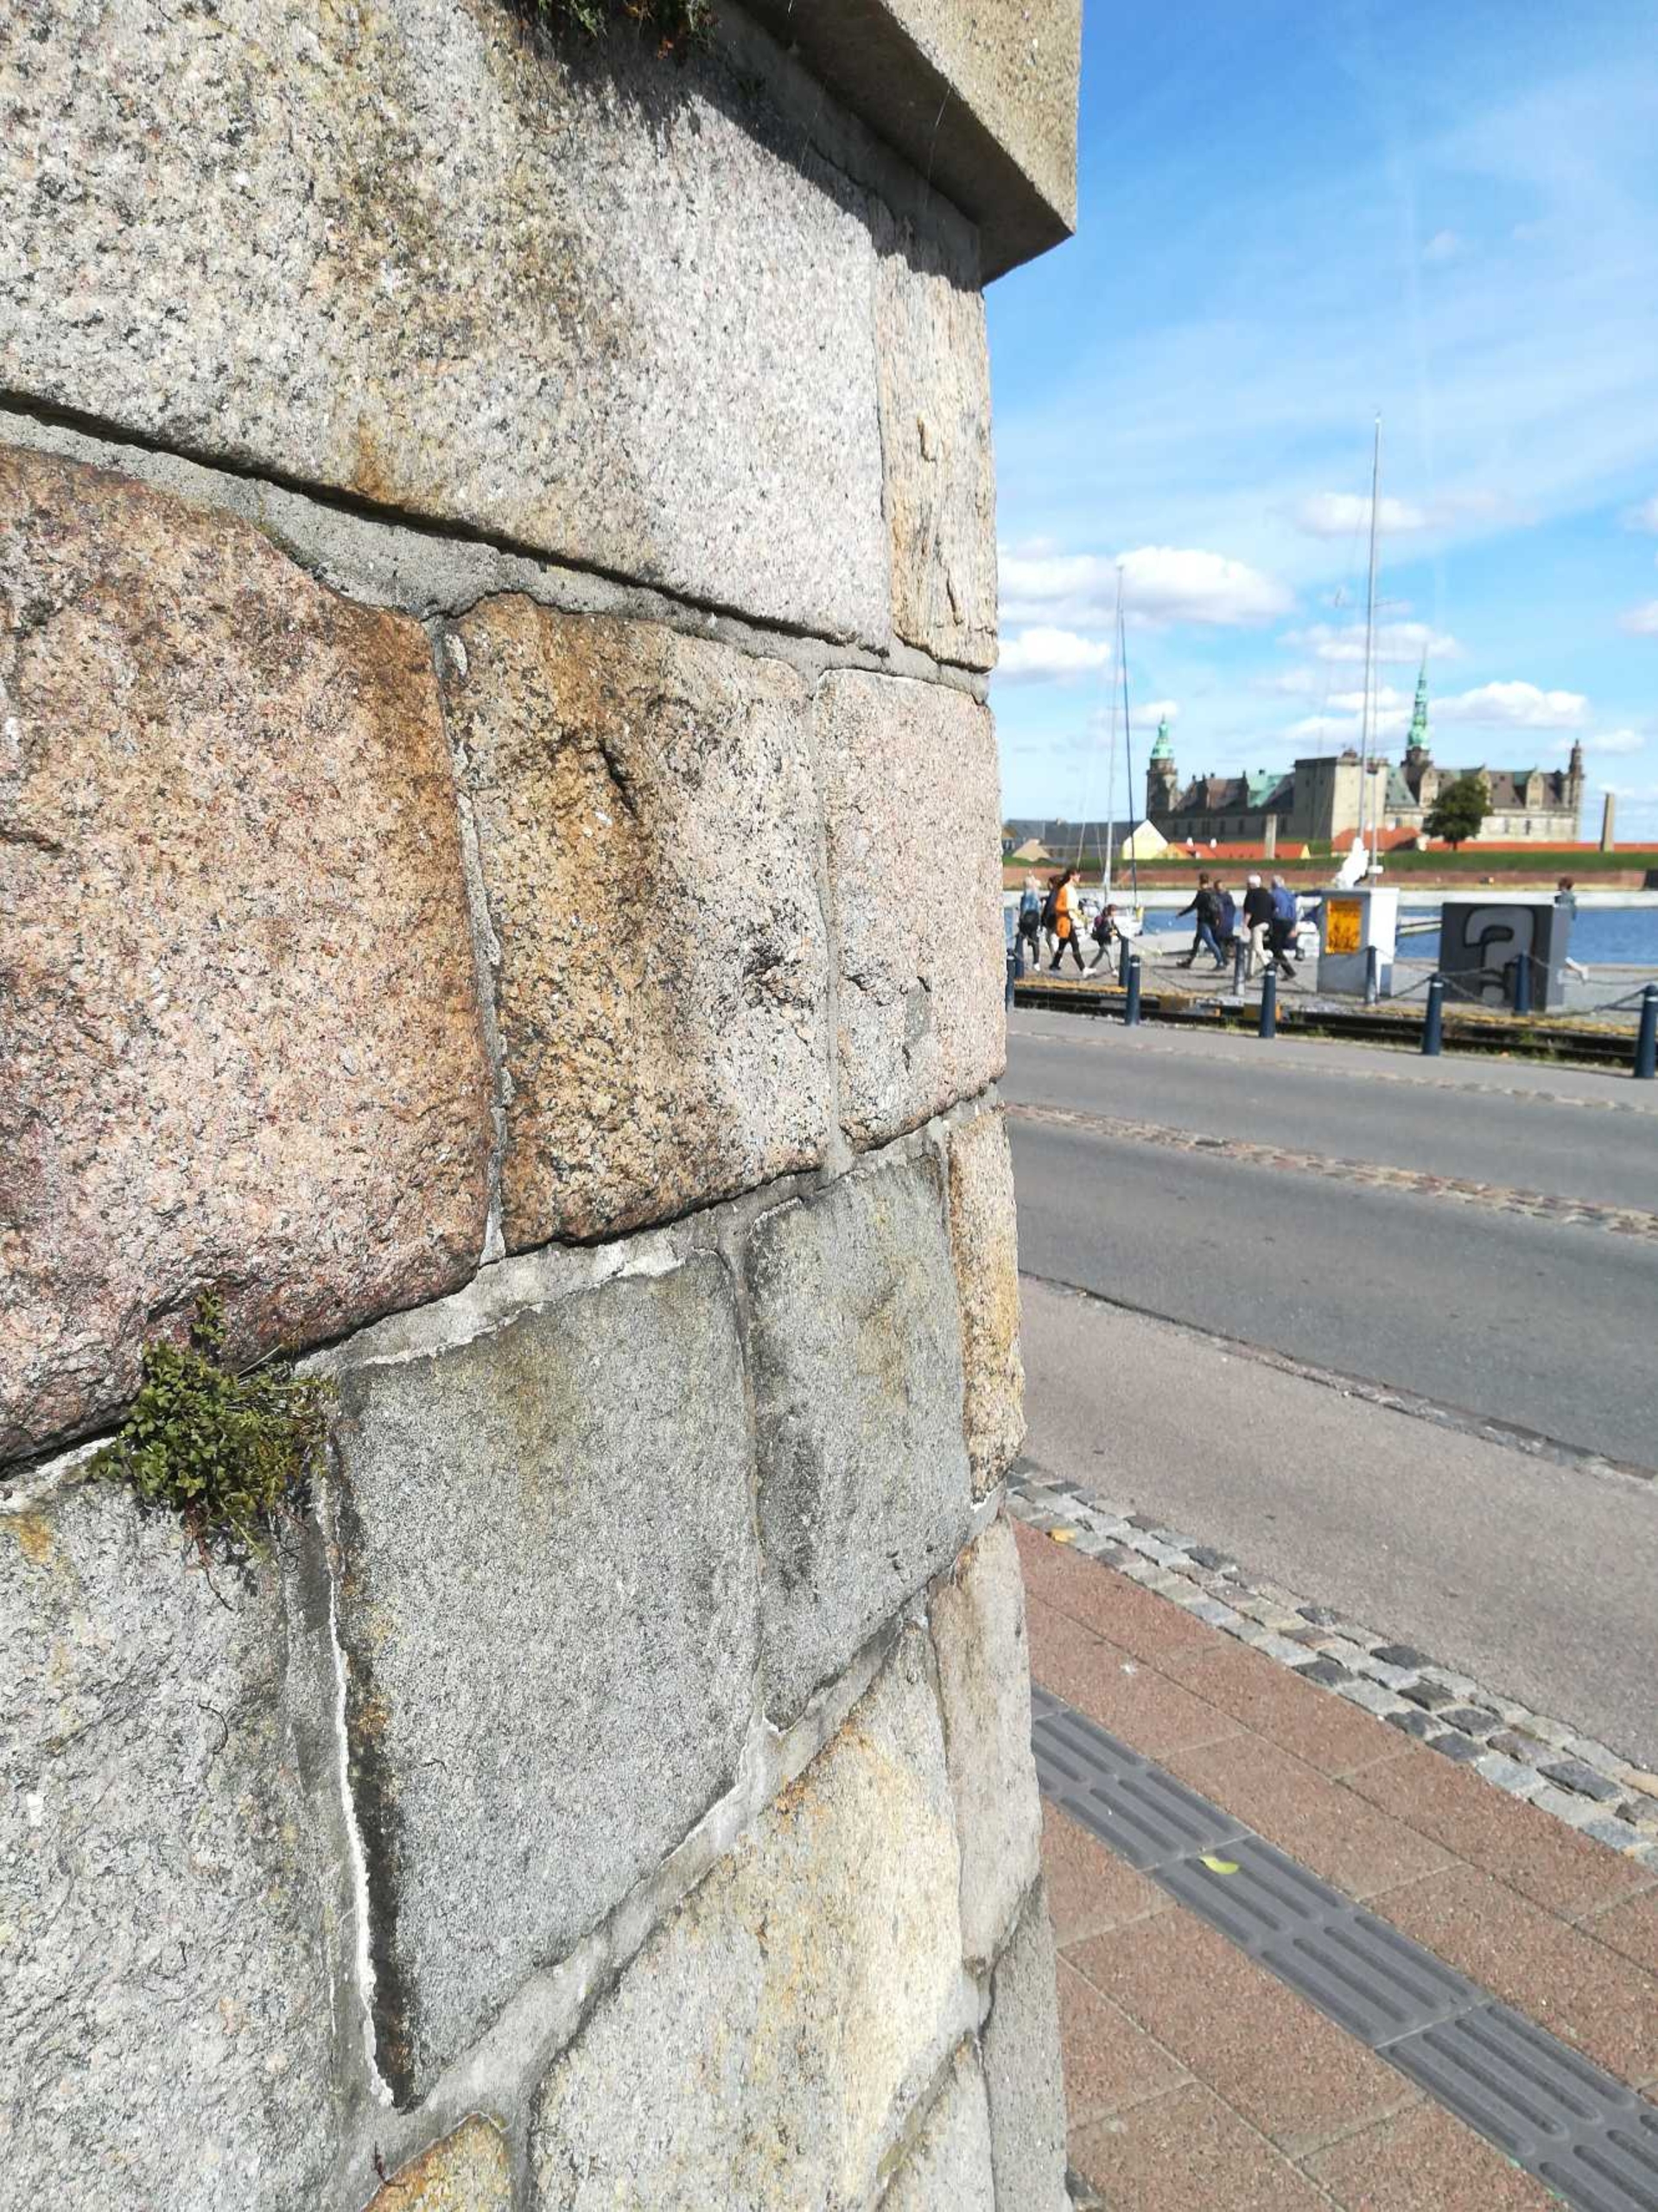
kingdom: Plantae
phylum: Tracheophyta
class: Polypodiopsida
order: Polypodiales
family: Aspleniaceae
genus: Asplenium
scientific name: Asplenium ruta-muraria
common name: Murrude
